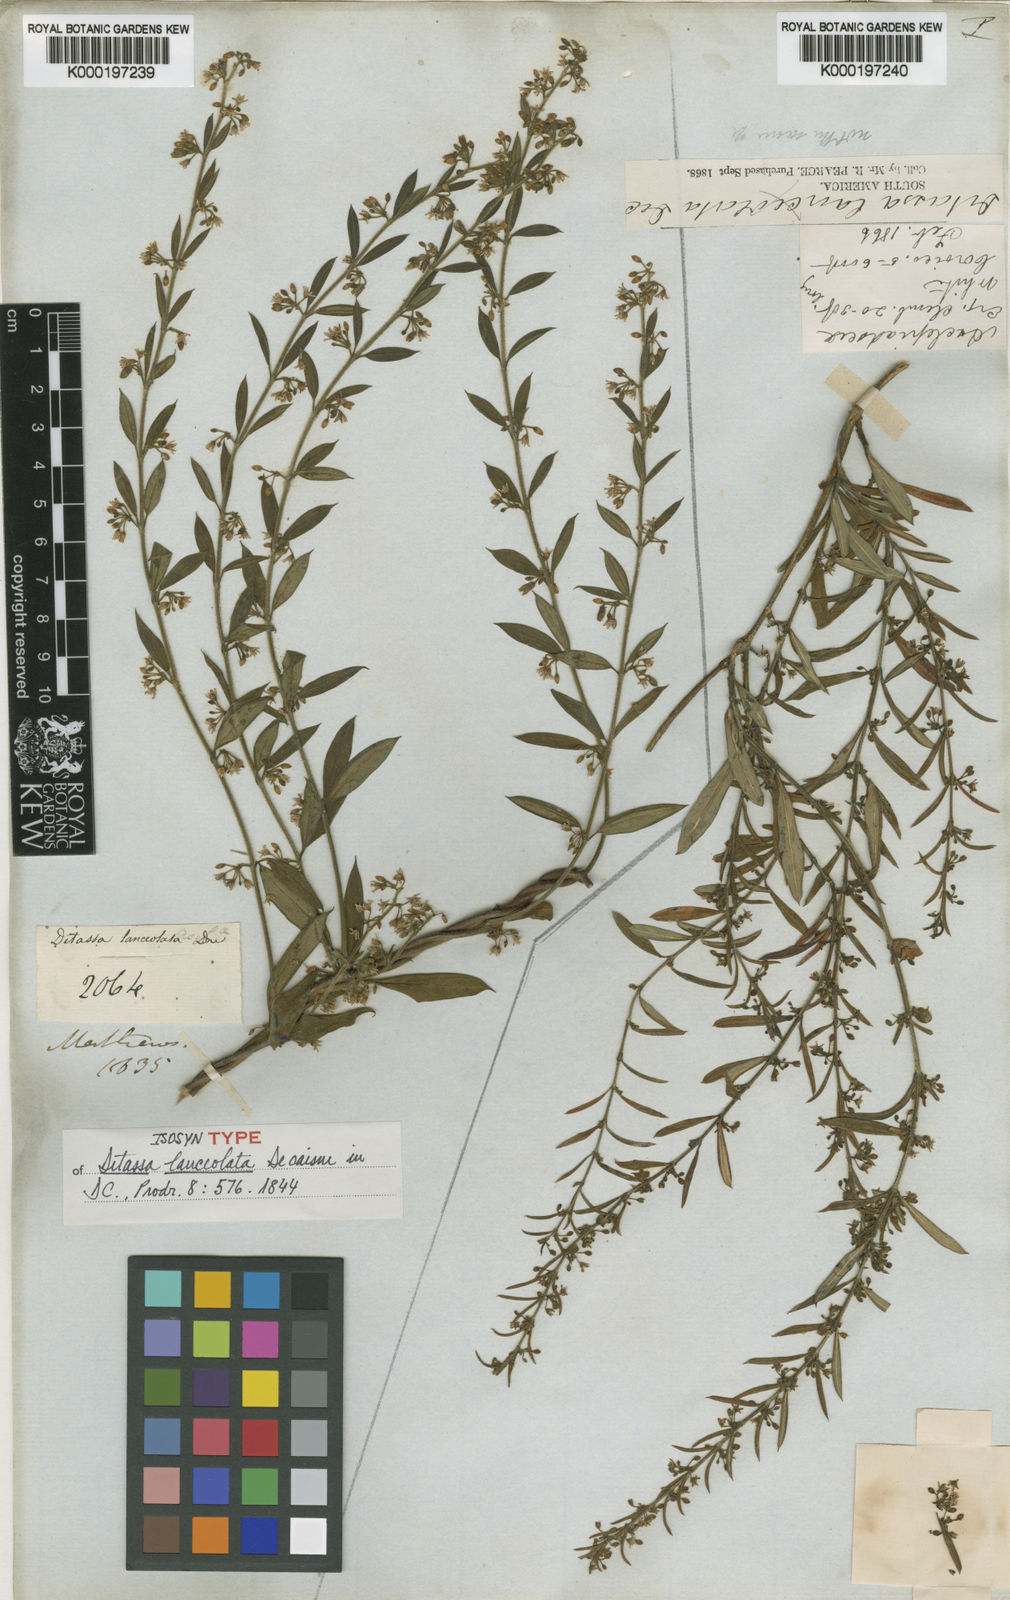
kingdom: Plantae
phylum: Tracheophyta
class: Magnoliopsida
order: Gentianales
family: Apocynaceae
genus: Ditassa
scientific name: Ditassa lanceolata
